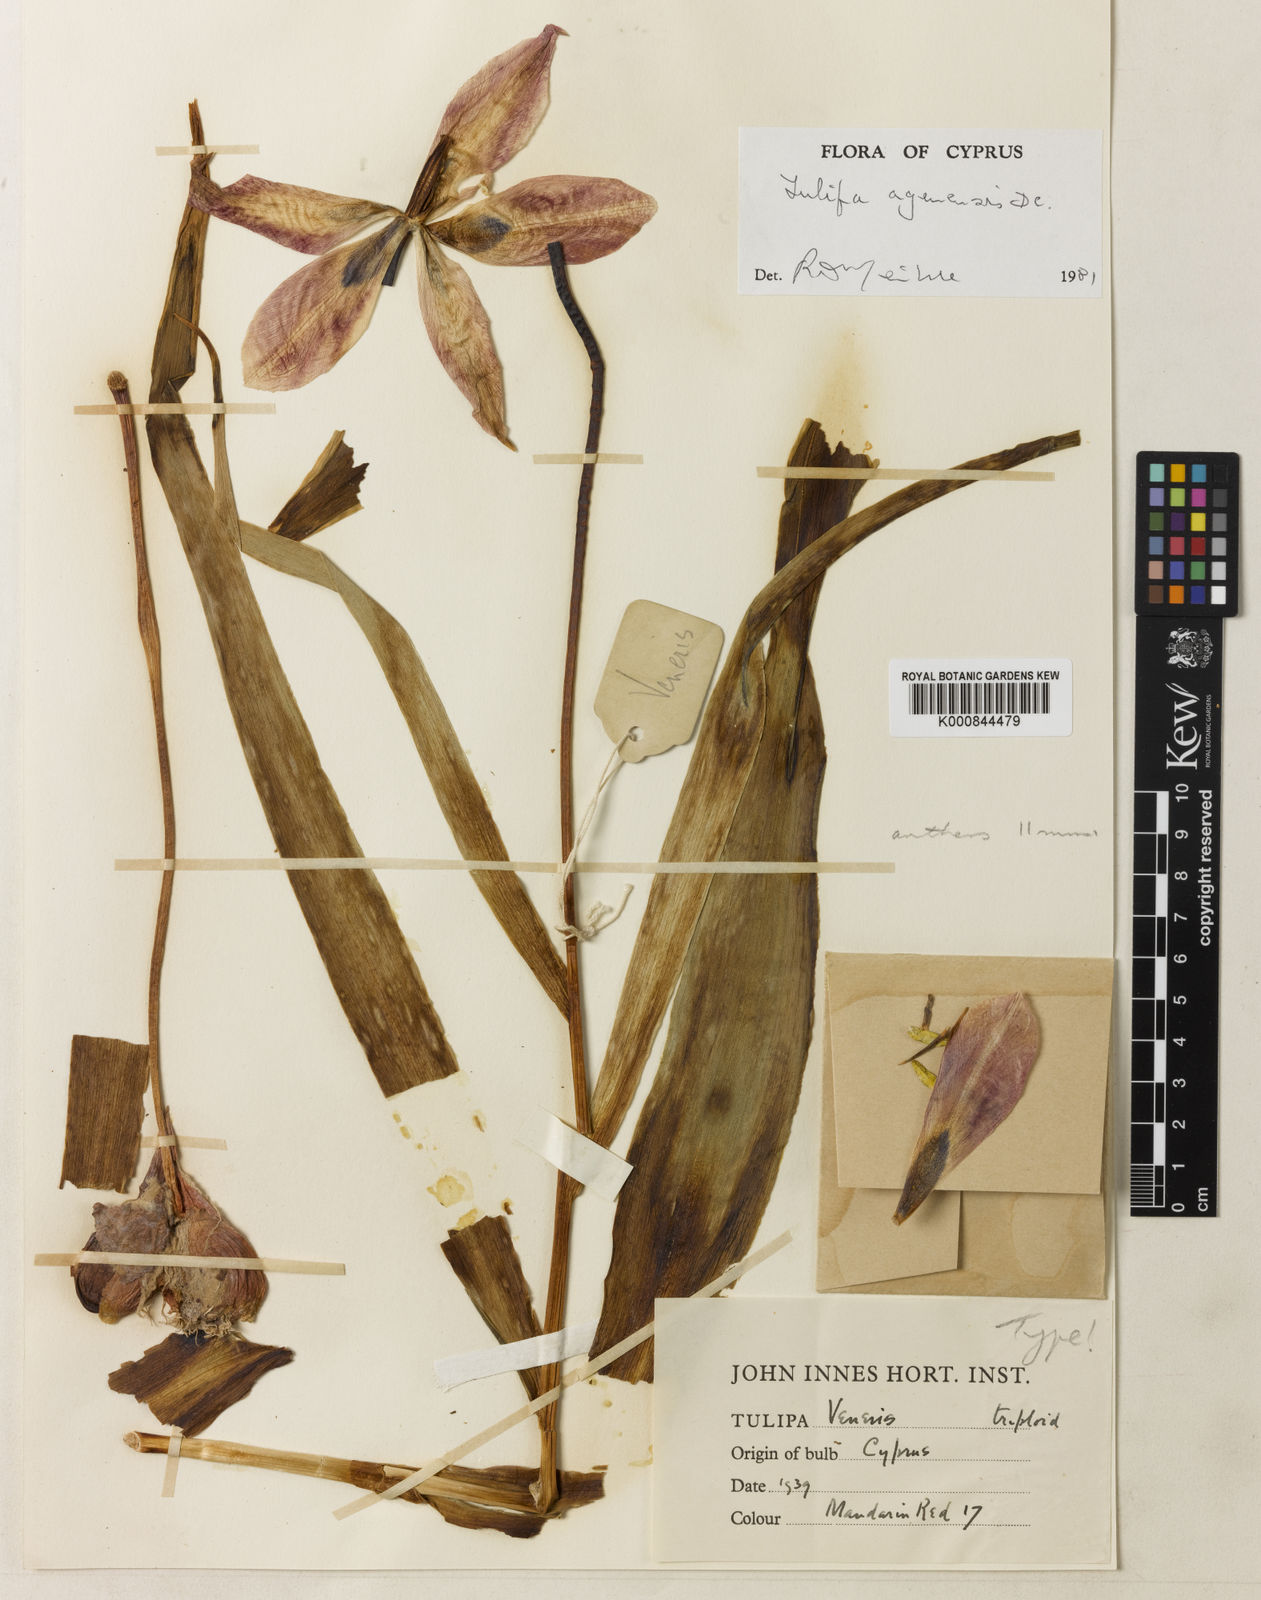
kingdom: Plantae
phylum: Tracheophyta
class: Liliopsida
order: Liliales
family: Liliaceae
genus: Tulipa
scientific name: Tulipa agenensis
